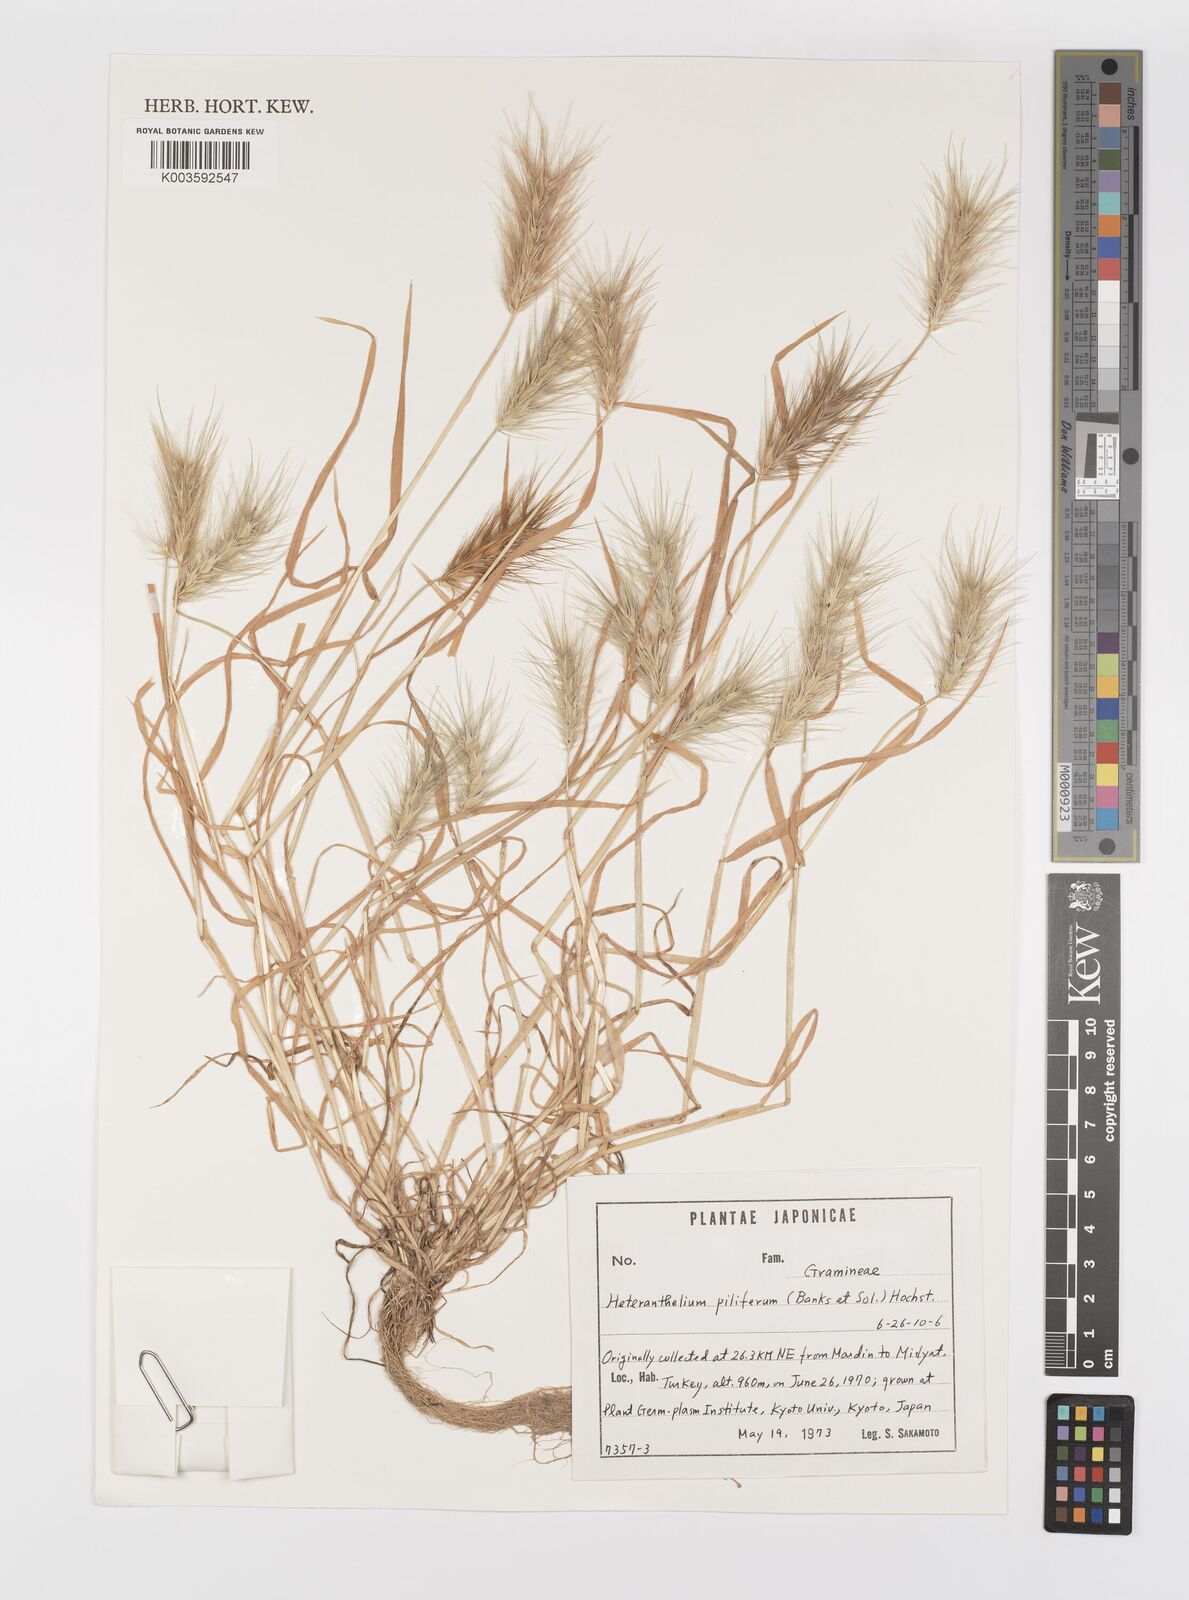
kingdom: Plantae
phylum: Tracheophyta
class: Liliopsida
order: Poales
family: Poaceae
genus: Heteranthelium
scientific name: Heteranthelium piliferum
